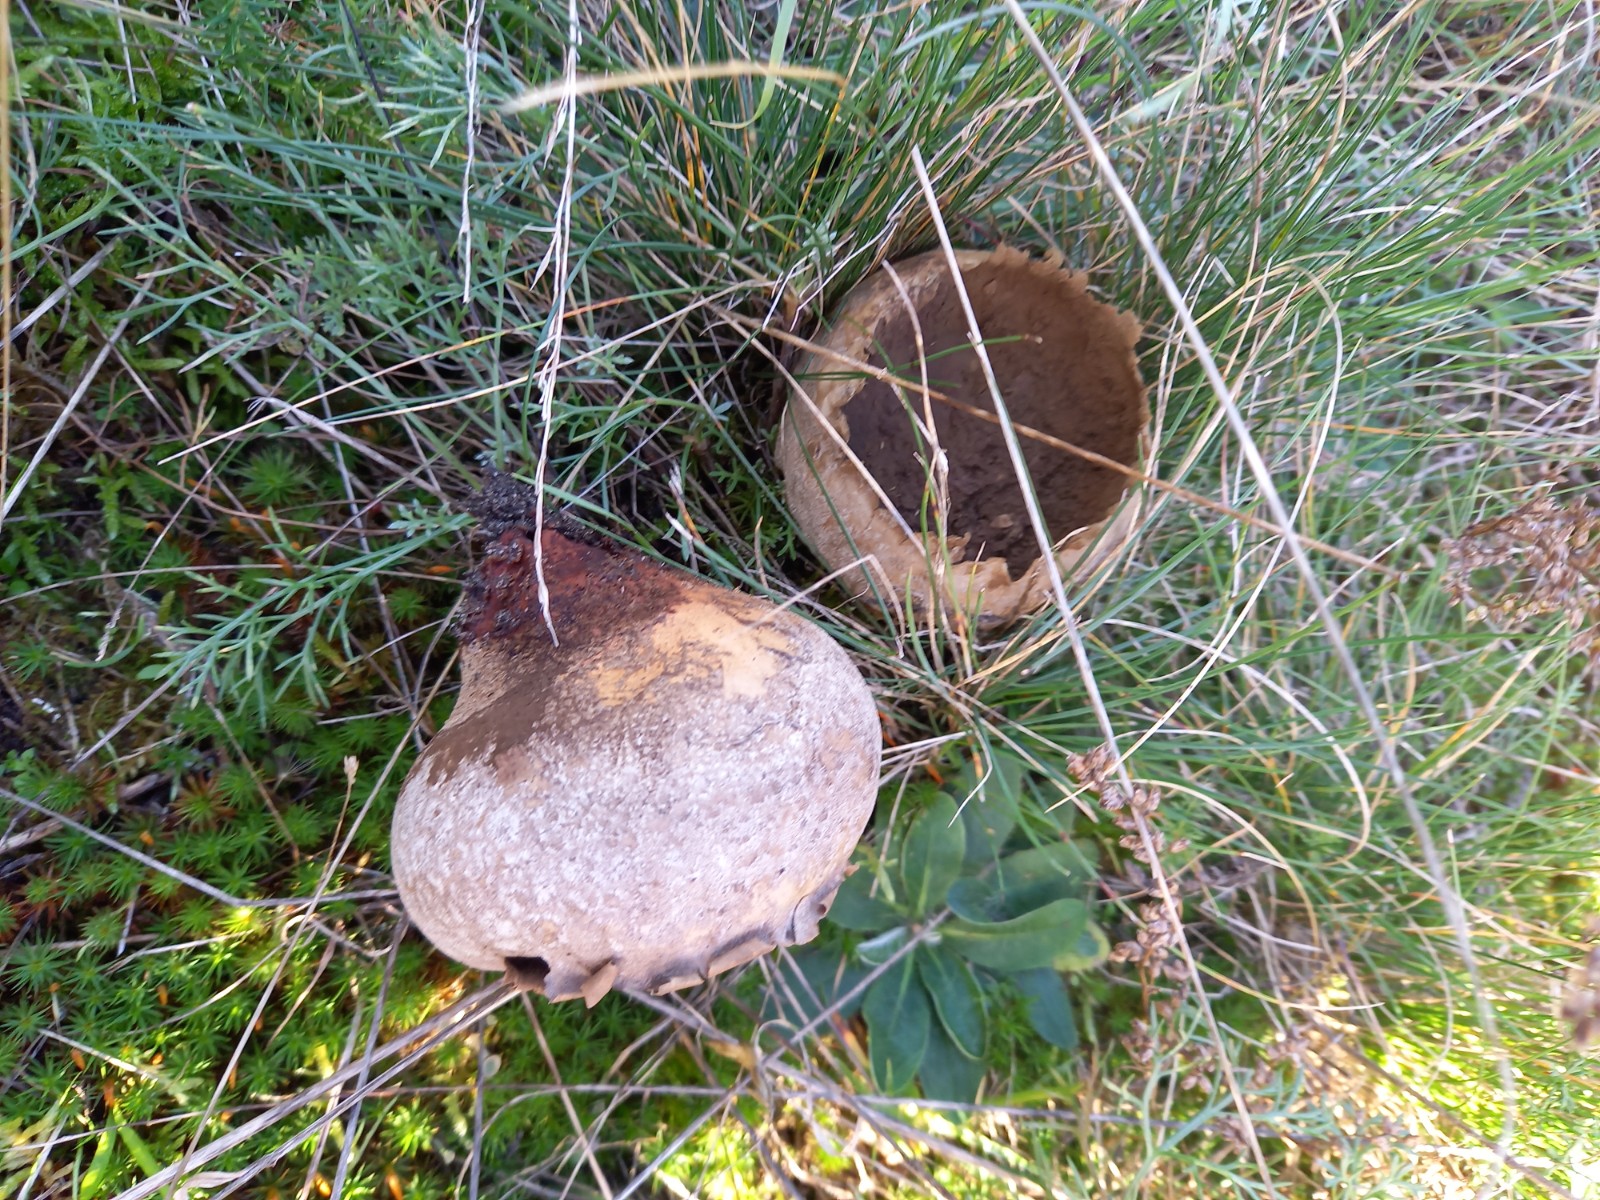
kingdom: Fungi
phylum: Basidiomycota
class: Agaricomycetes
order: Agaricales
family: Lycoperdaceae
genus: Bovistella
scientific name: Bovistella utriformis
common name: skællet støvbold
